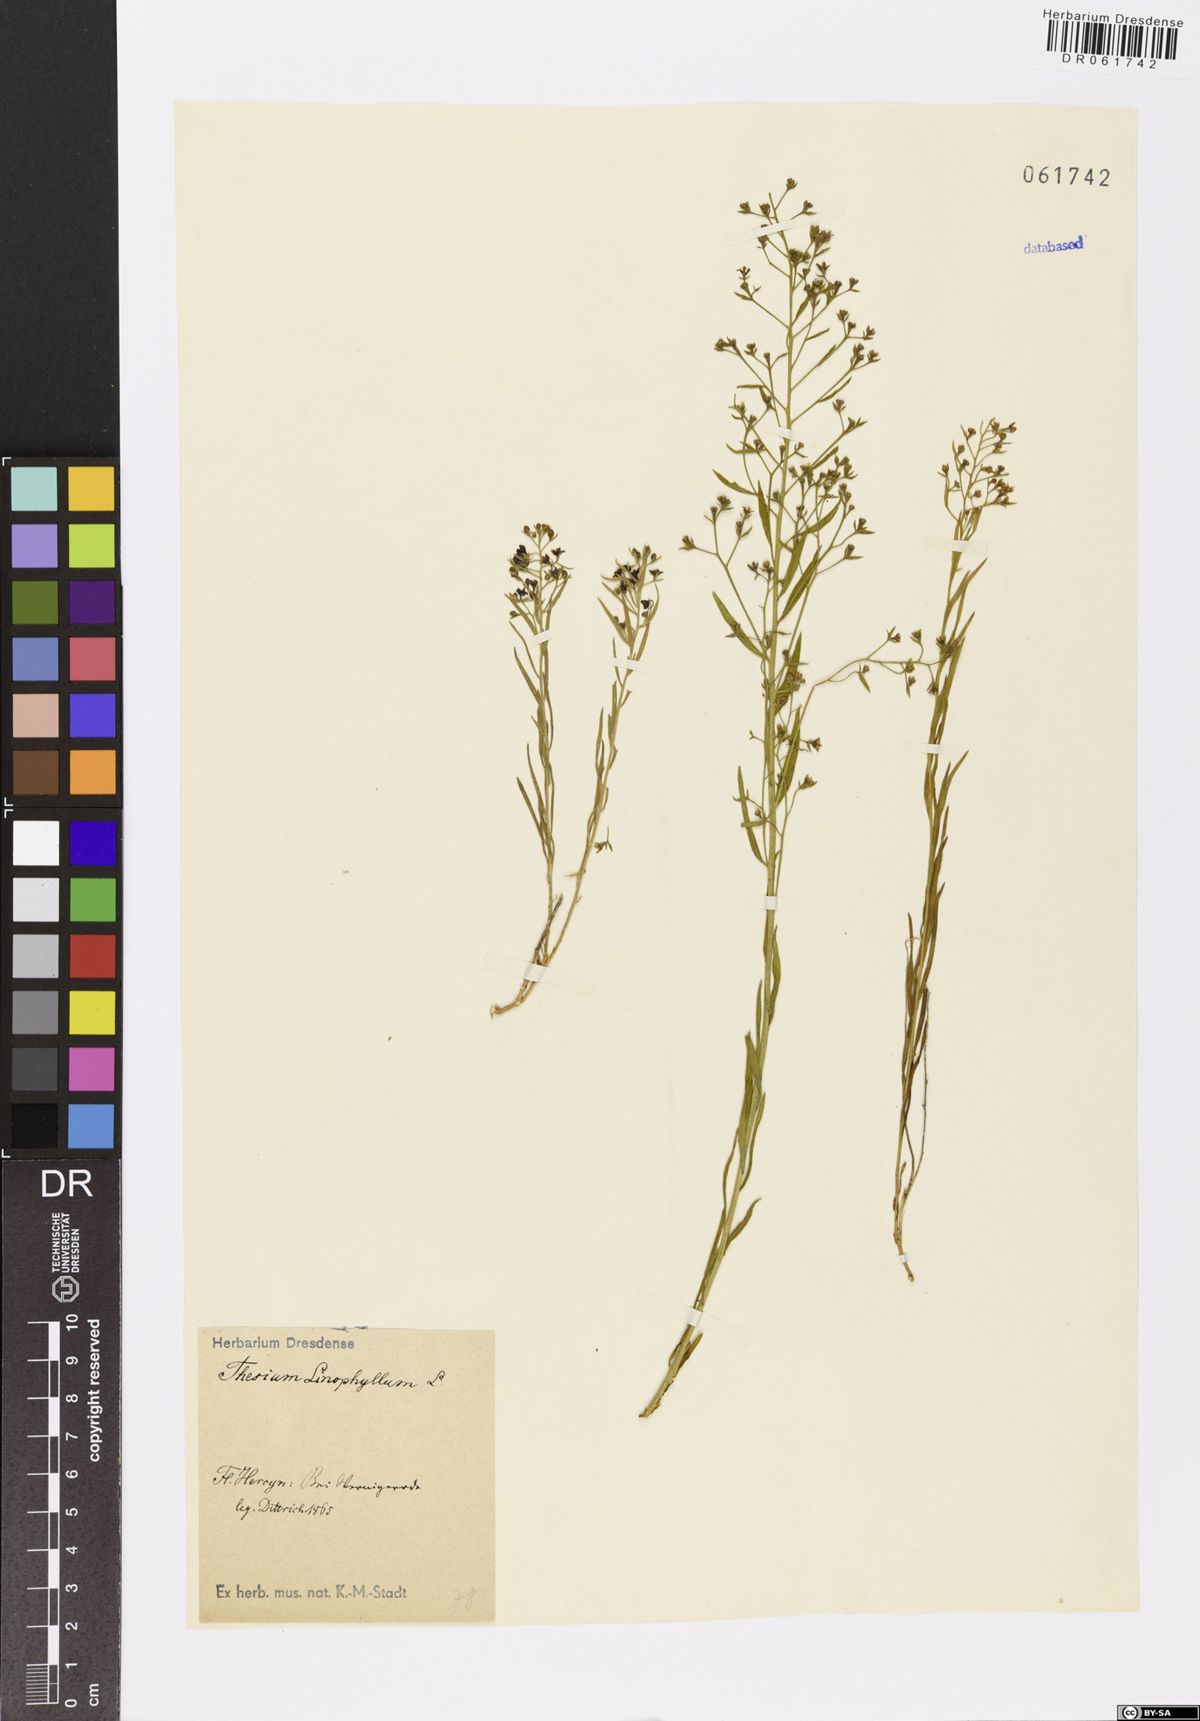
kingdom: Plantae
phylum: Tracheophyta
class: Magnoliopsida
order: Santalales
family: Thesiaceae
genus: Thesium
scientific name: Thesium linophyllon
